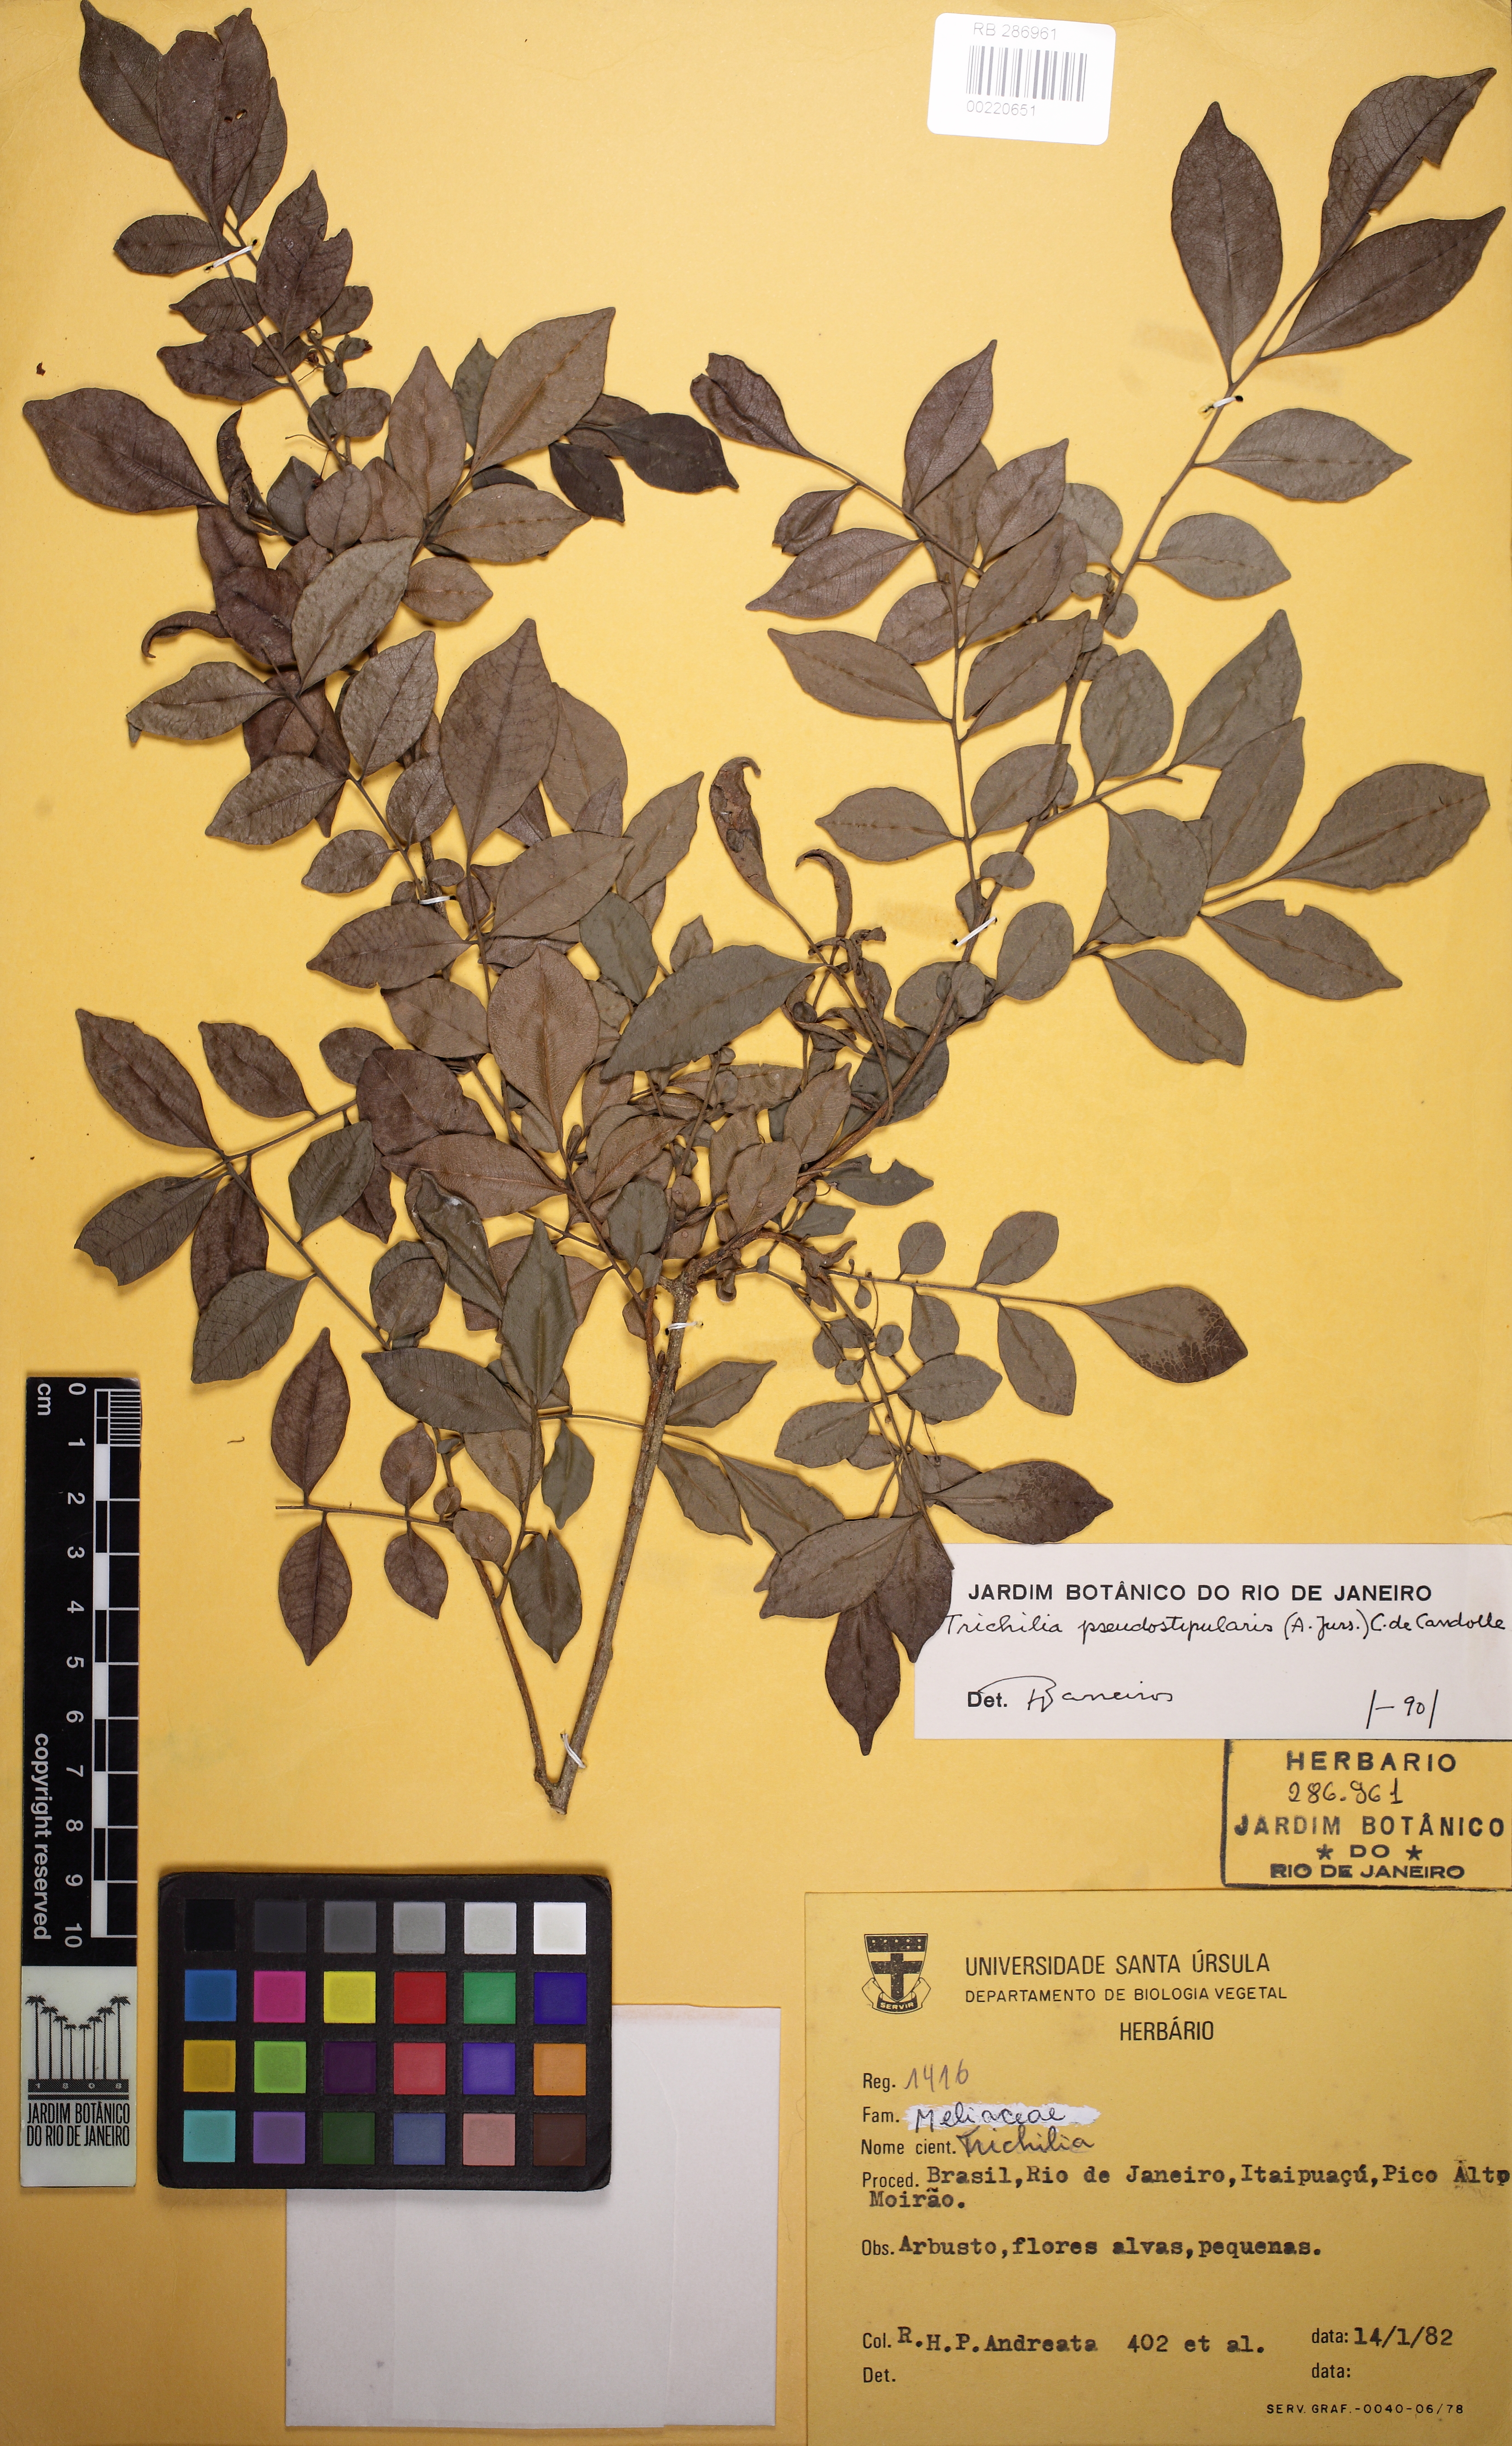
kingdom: Plantae
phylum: Tracheophyta
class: Magnoliopsida
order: Sapindales
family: Meliaceae
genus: Trichilia
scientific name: Trichilia pseudostipularis
